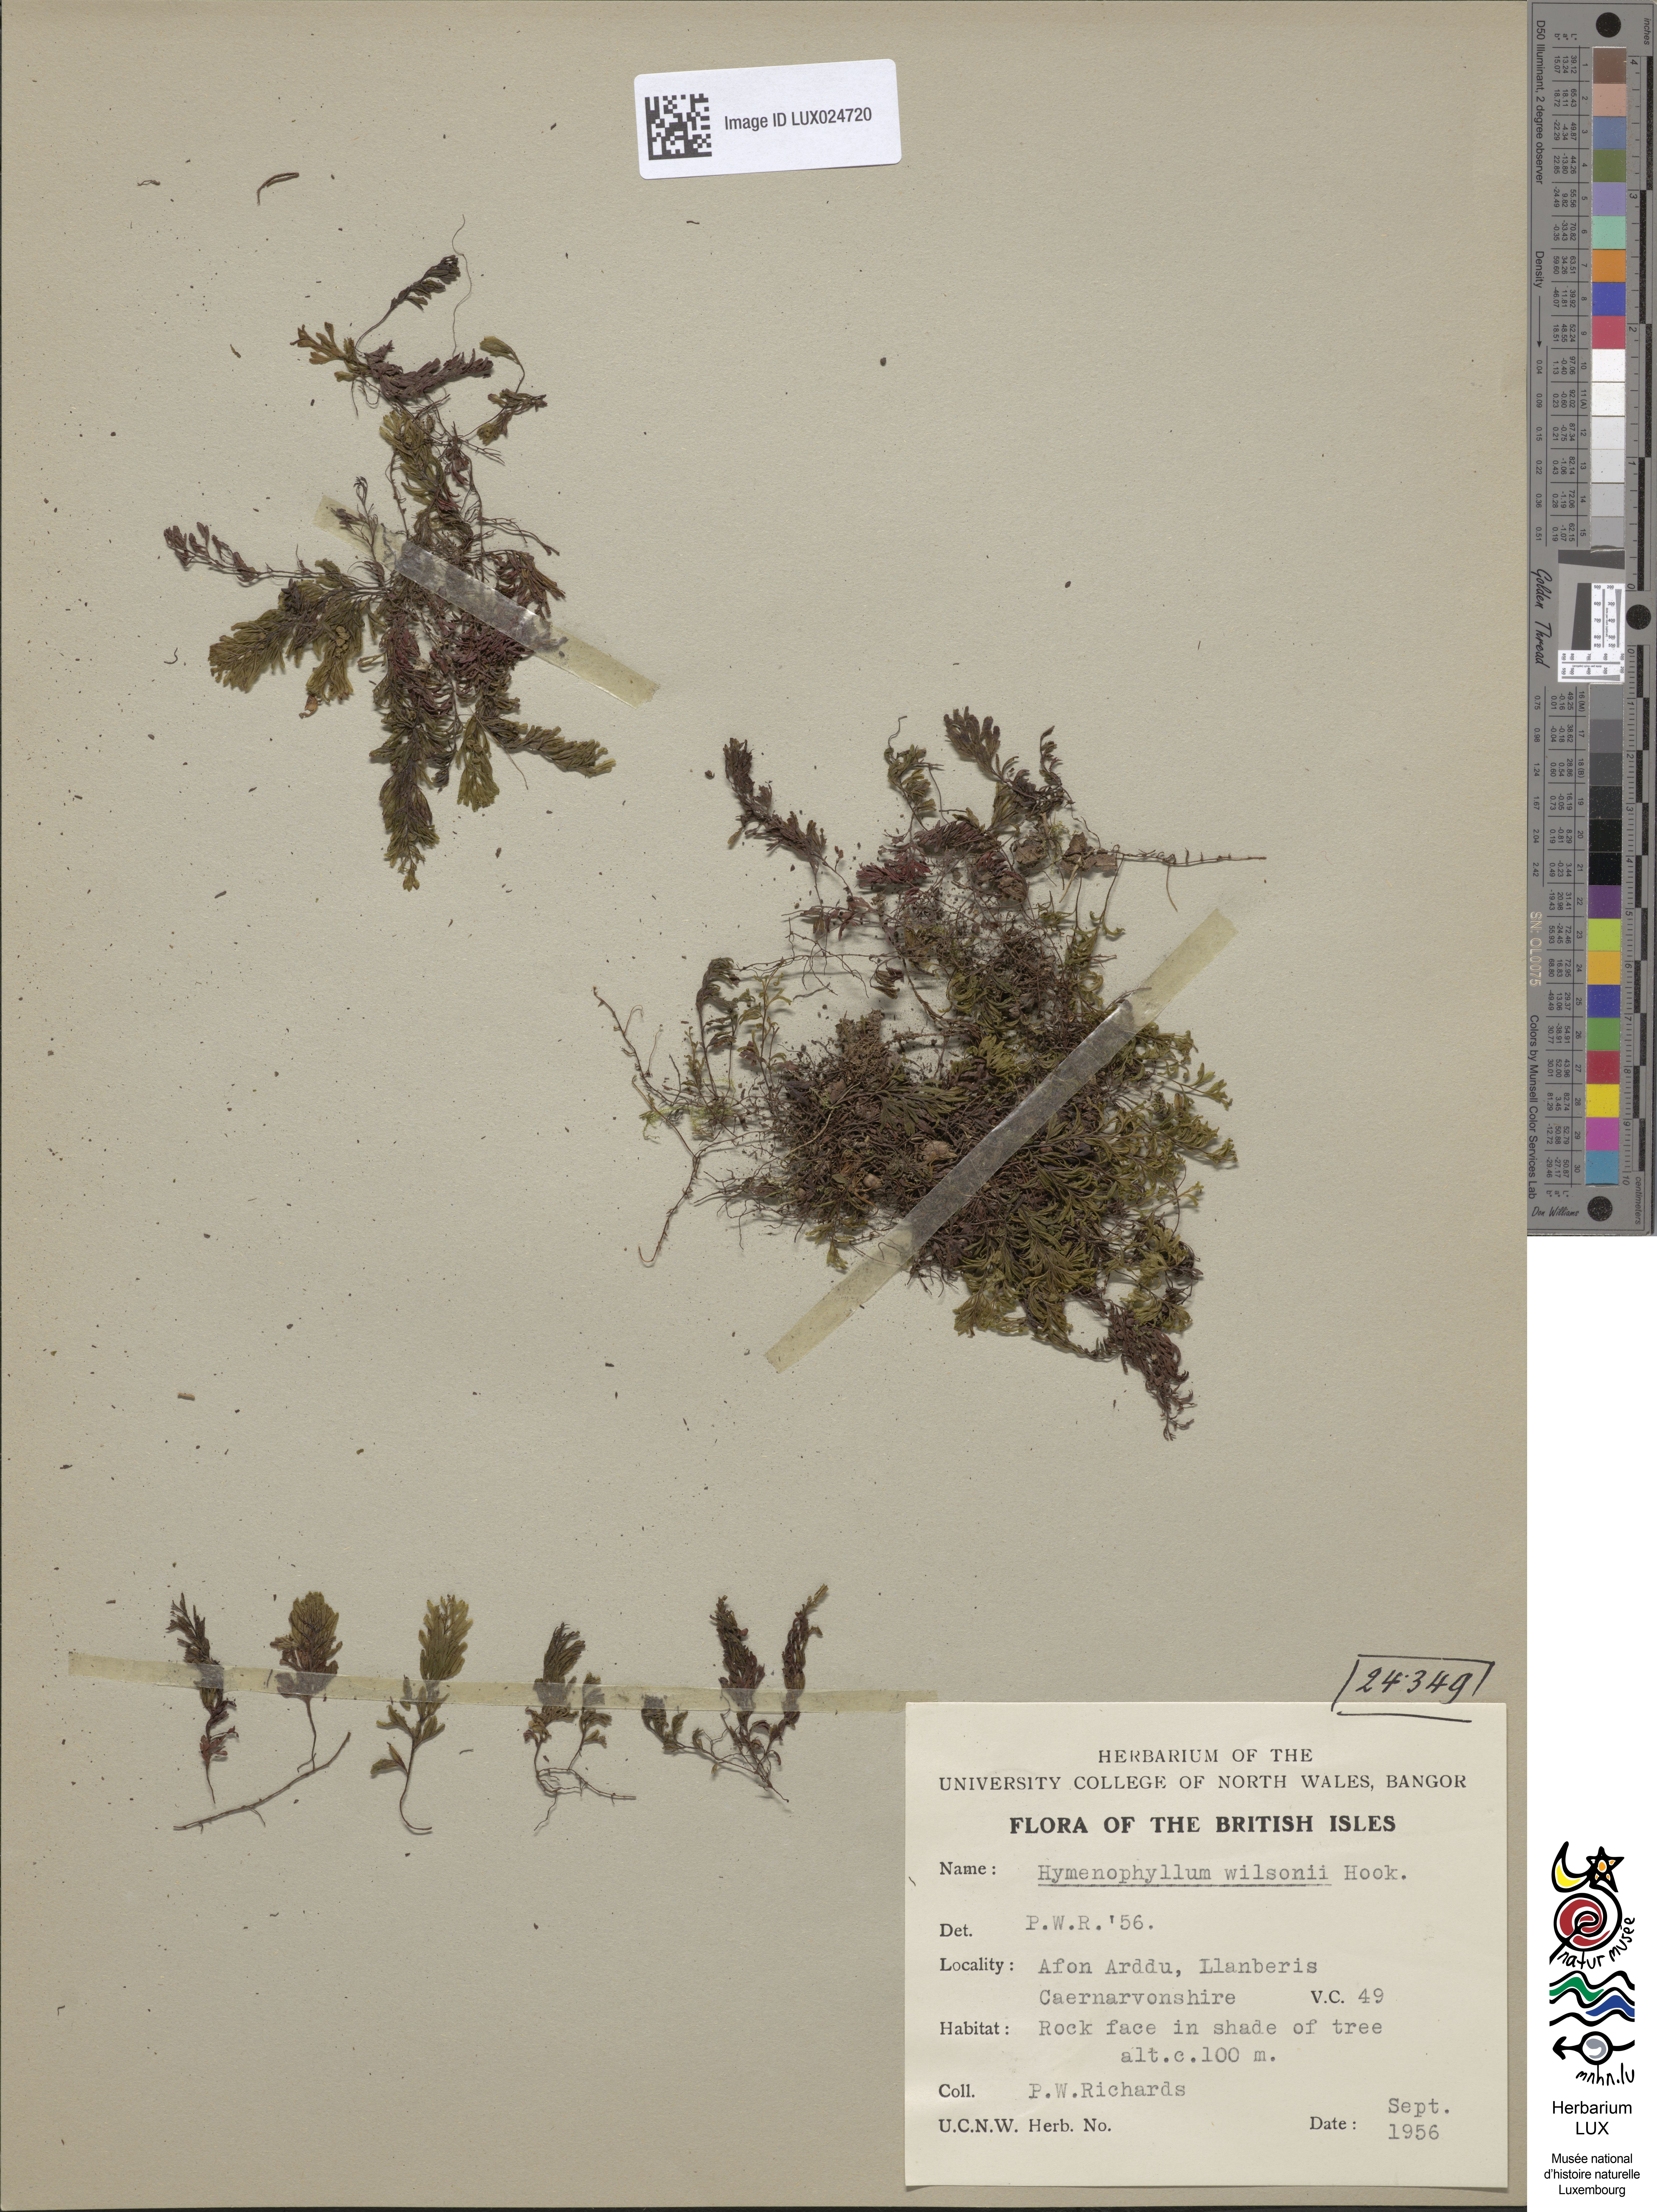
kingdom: Plantae
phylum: Tracheophyta
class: Polypodiopsida
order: Hymenophyllales
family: Hymenophyllaceae
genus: Hymenophyllum
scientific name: Hymenophyllum wilsonii
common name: Wilson's filmy fern
